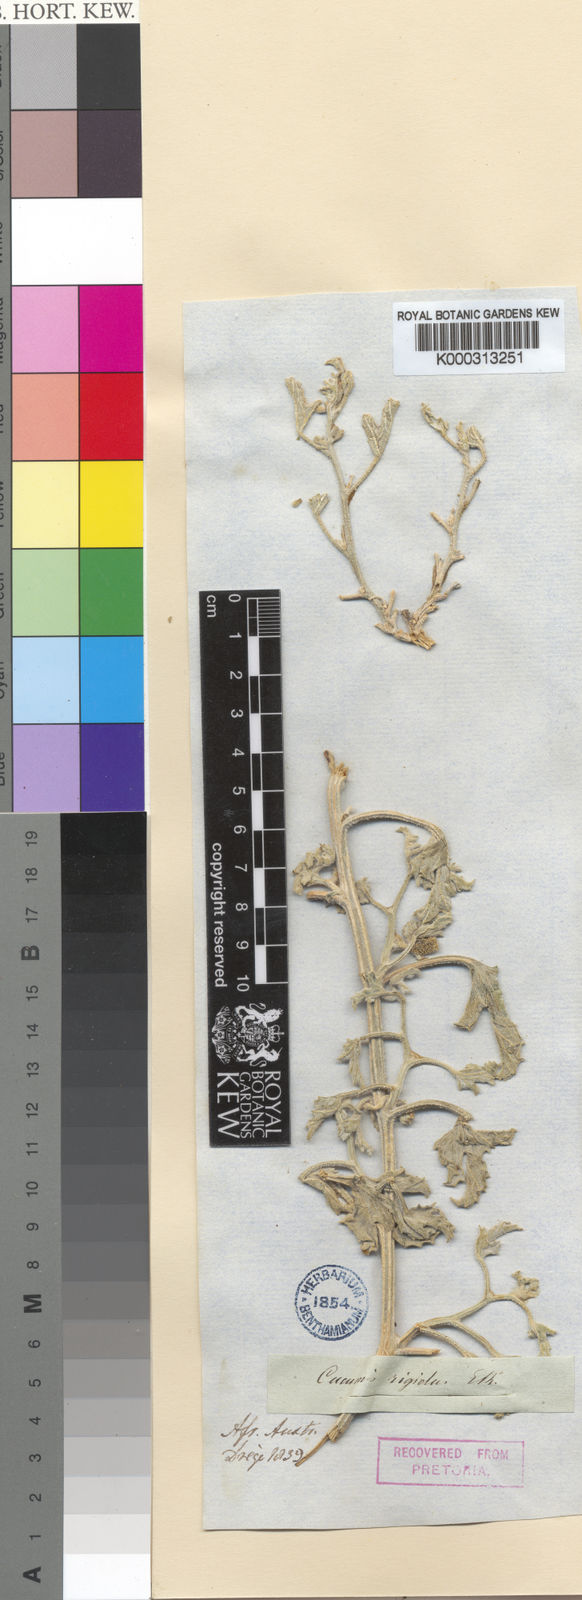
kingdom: Plantae
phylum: Tracheophyta
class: Magnoliopsida
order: Cucurbitales
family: Cucurbitaceae
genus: Cucumis
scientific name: Cucumis rigidus
